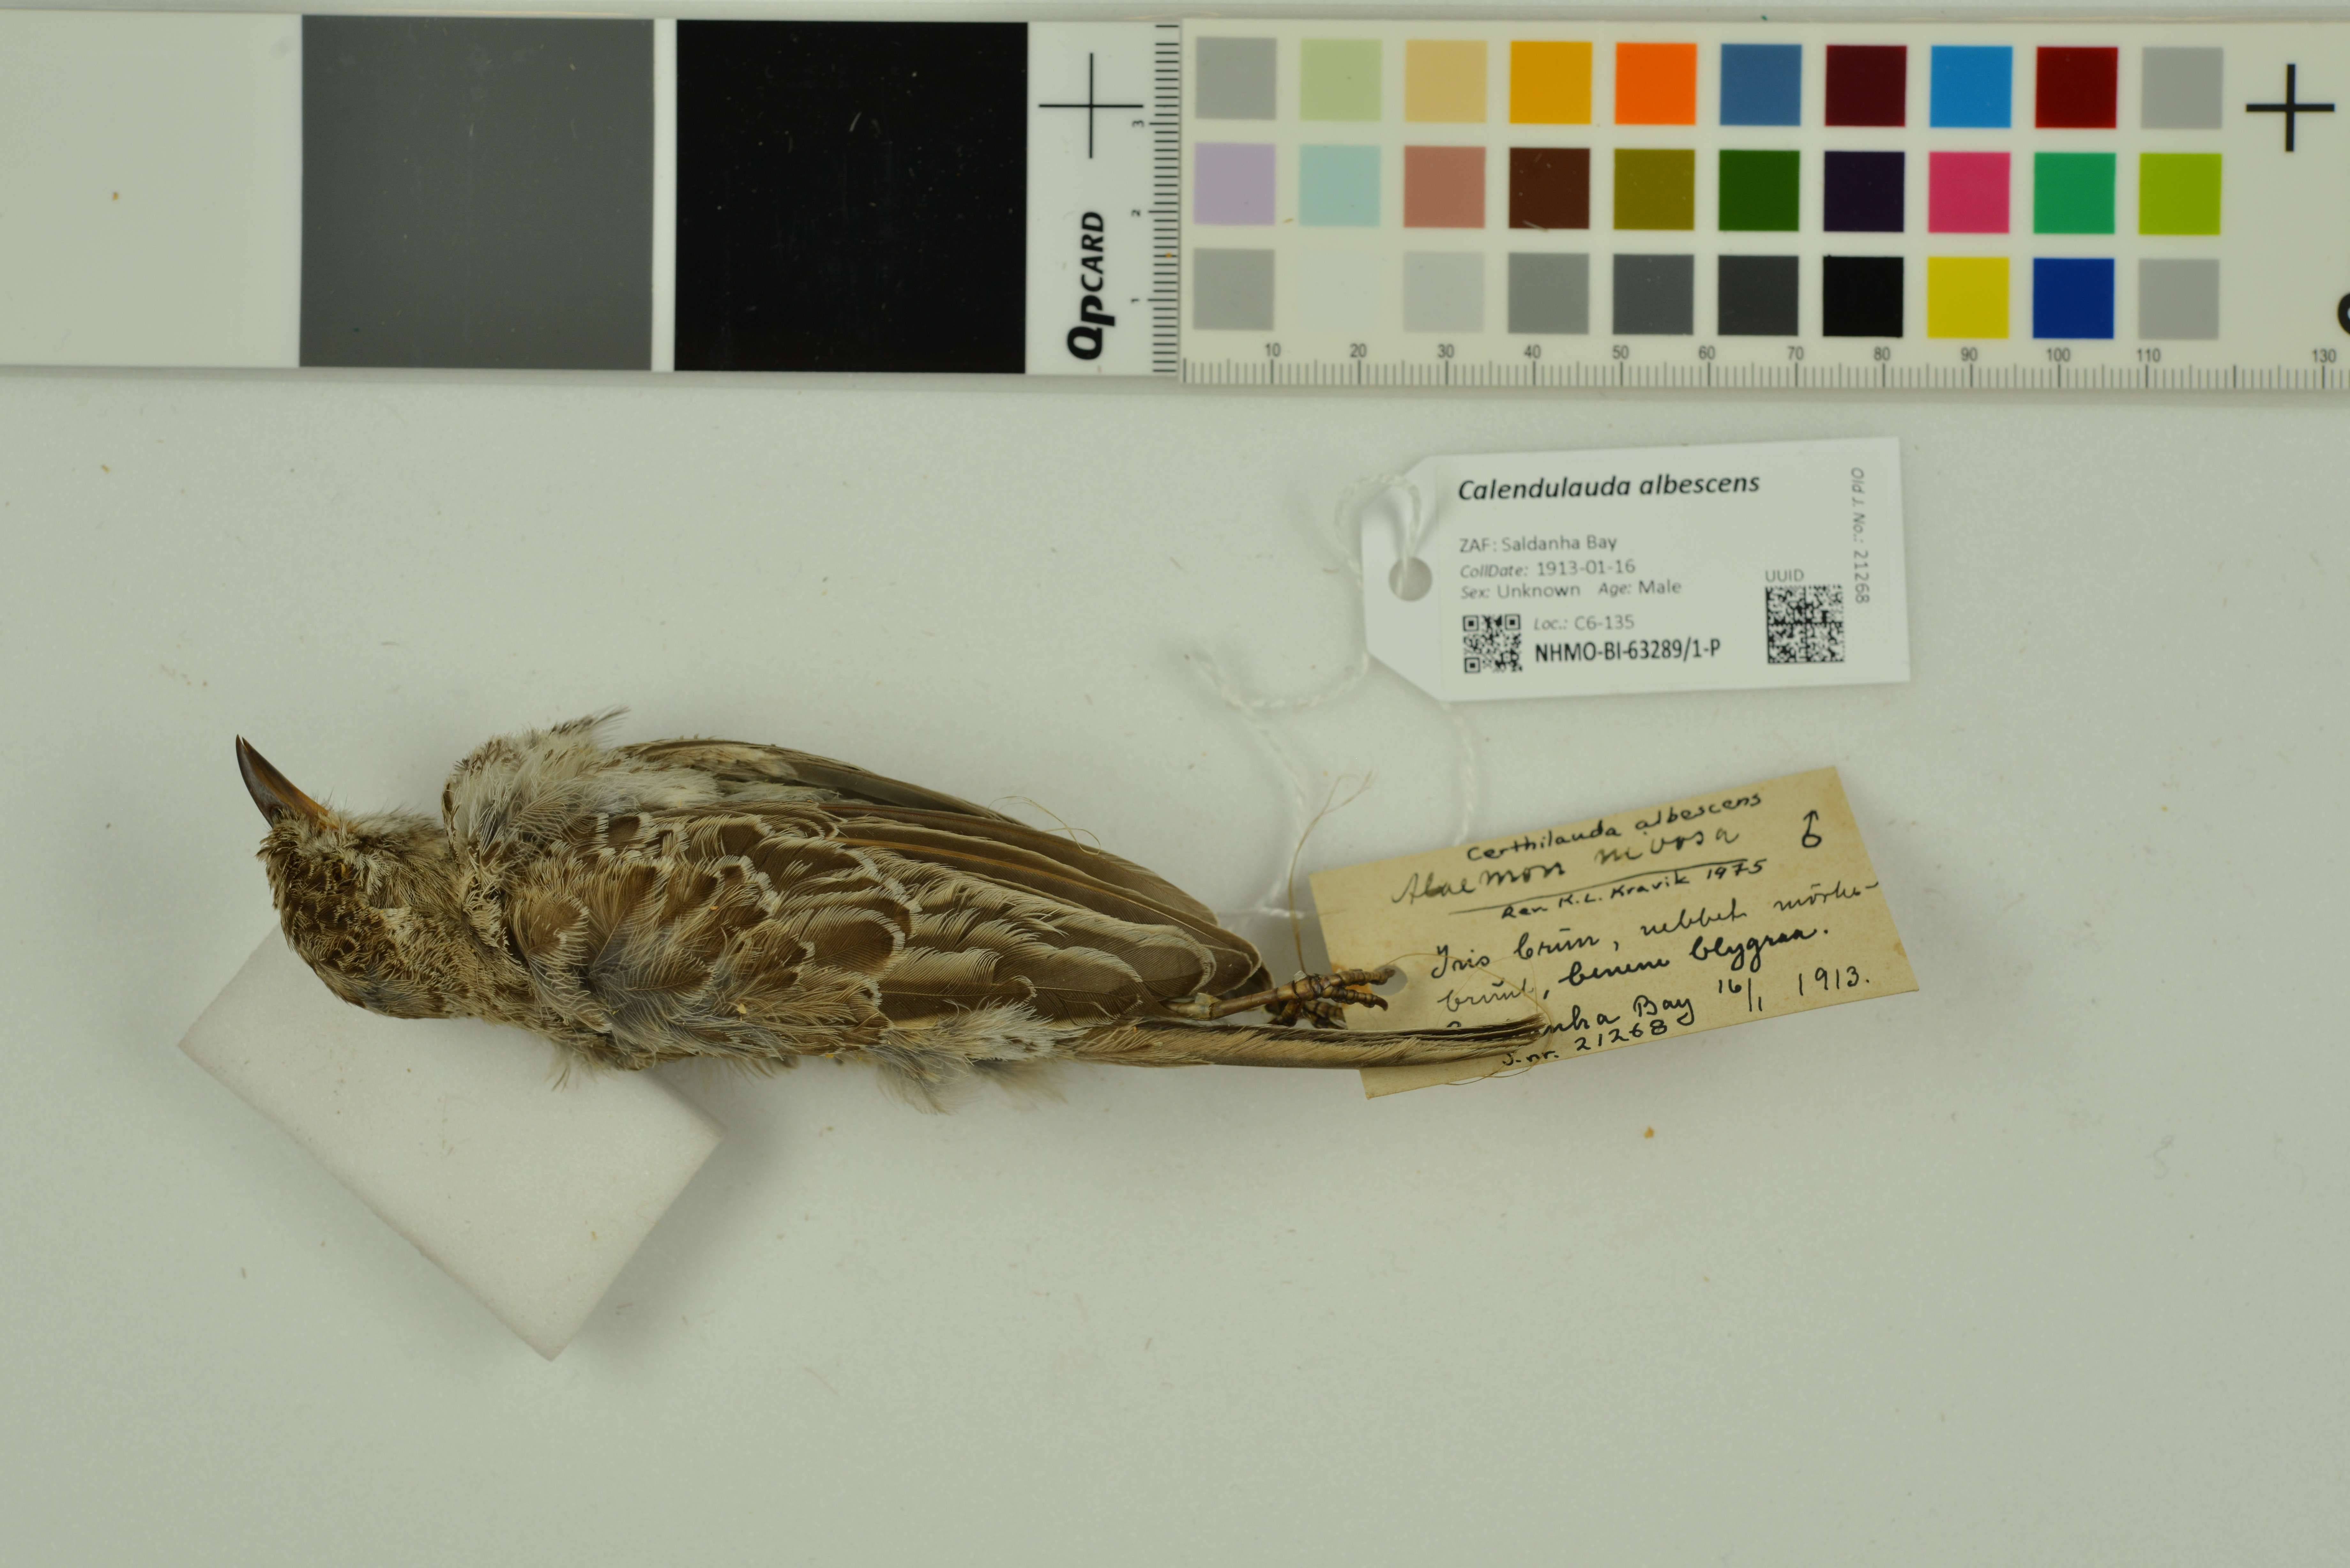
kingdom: Animalia
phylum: Chordata
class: Aves
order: Passeriformes
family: Alaudidae
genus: Calendulauda
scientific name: Calendulauda albescens
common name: Karoo lark
